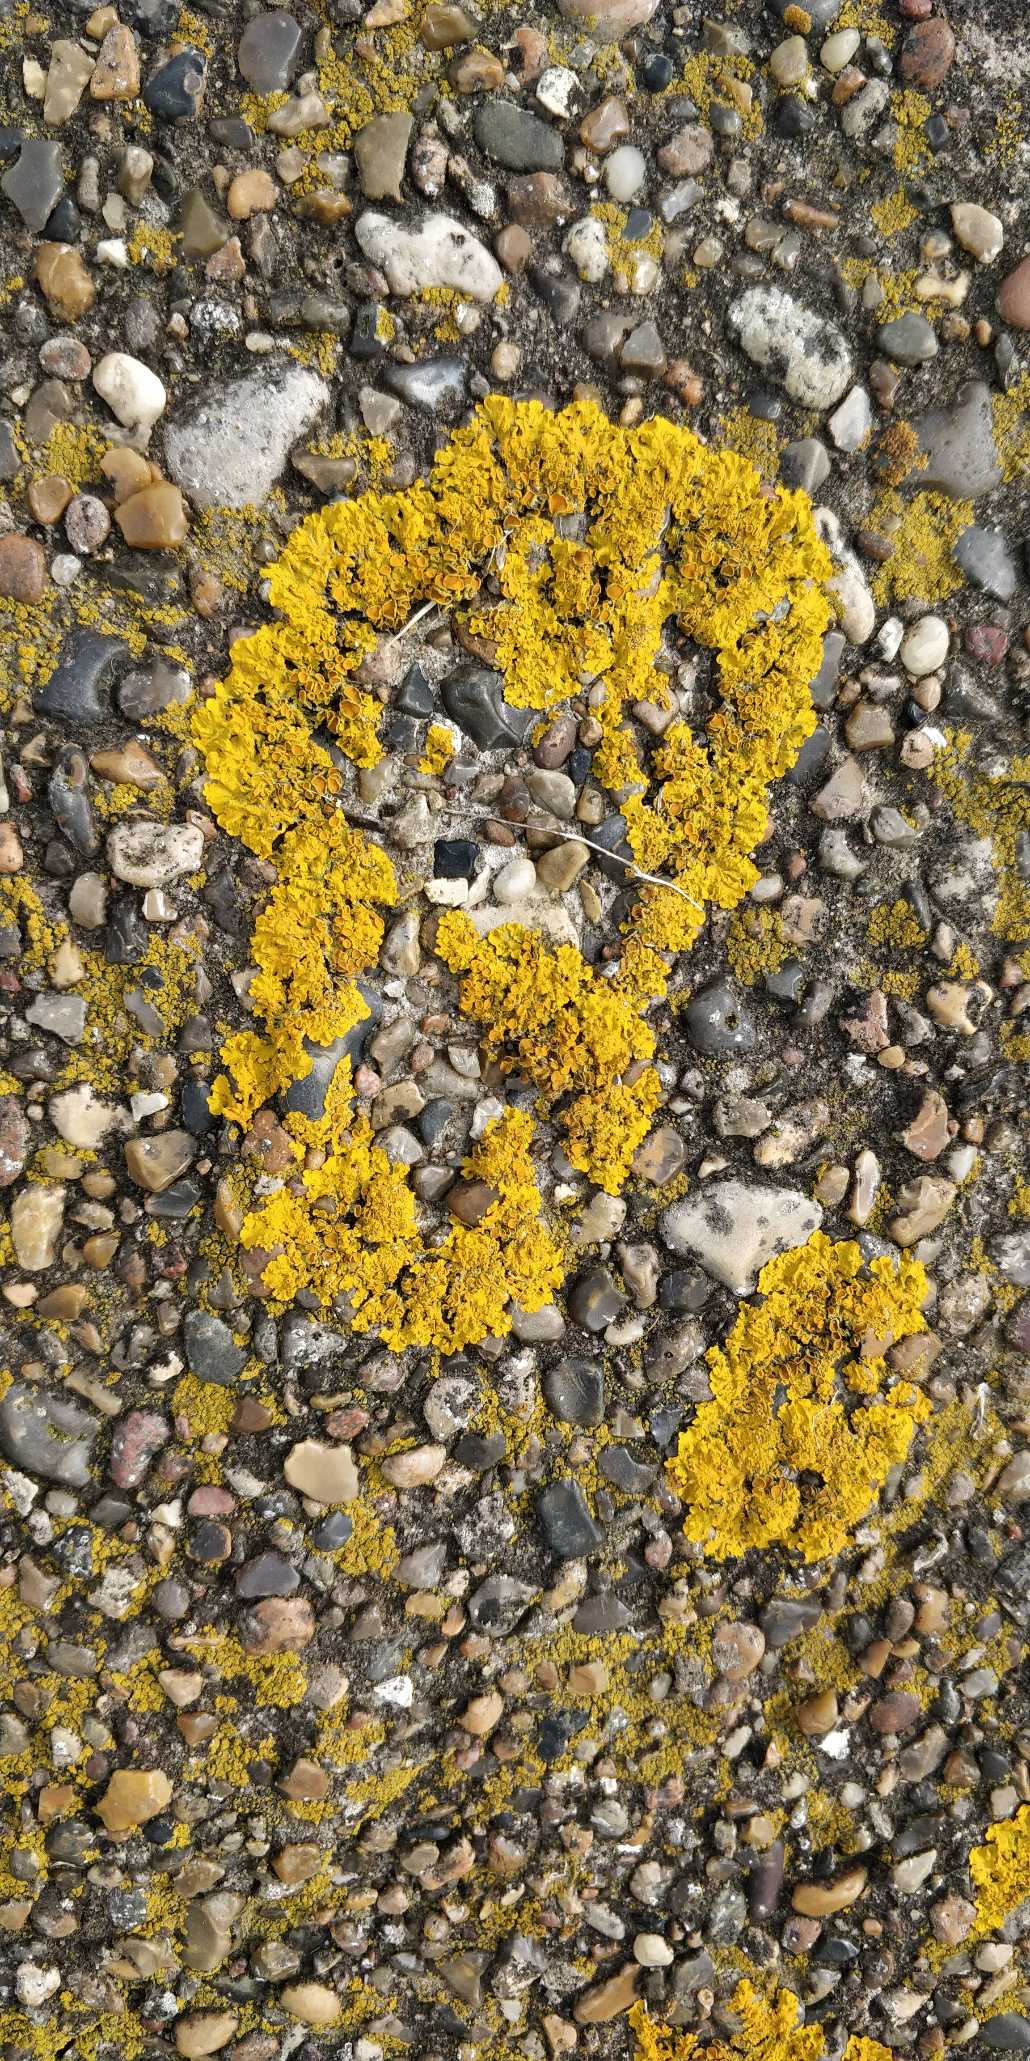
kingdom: Fungi
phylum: Ascomycota
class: Lecanoromycetes
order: Teloschistales
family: Teloschistaceae
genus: Xanthoria
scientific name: Xanthoria parietina
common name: Almindelig væggelav
